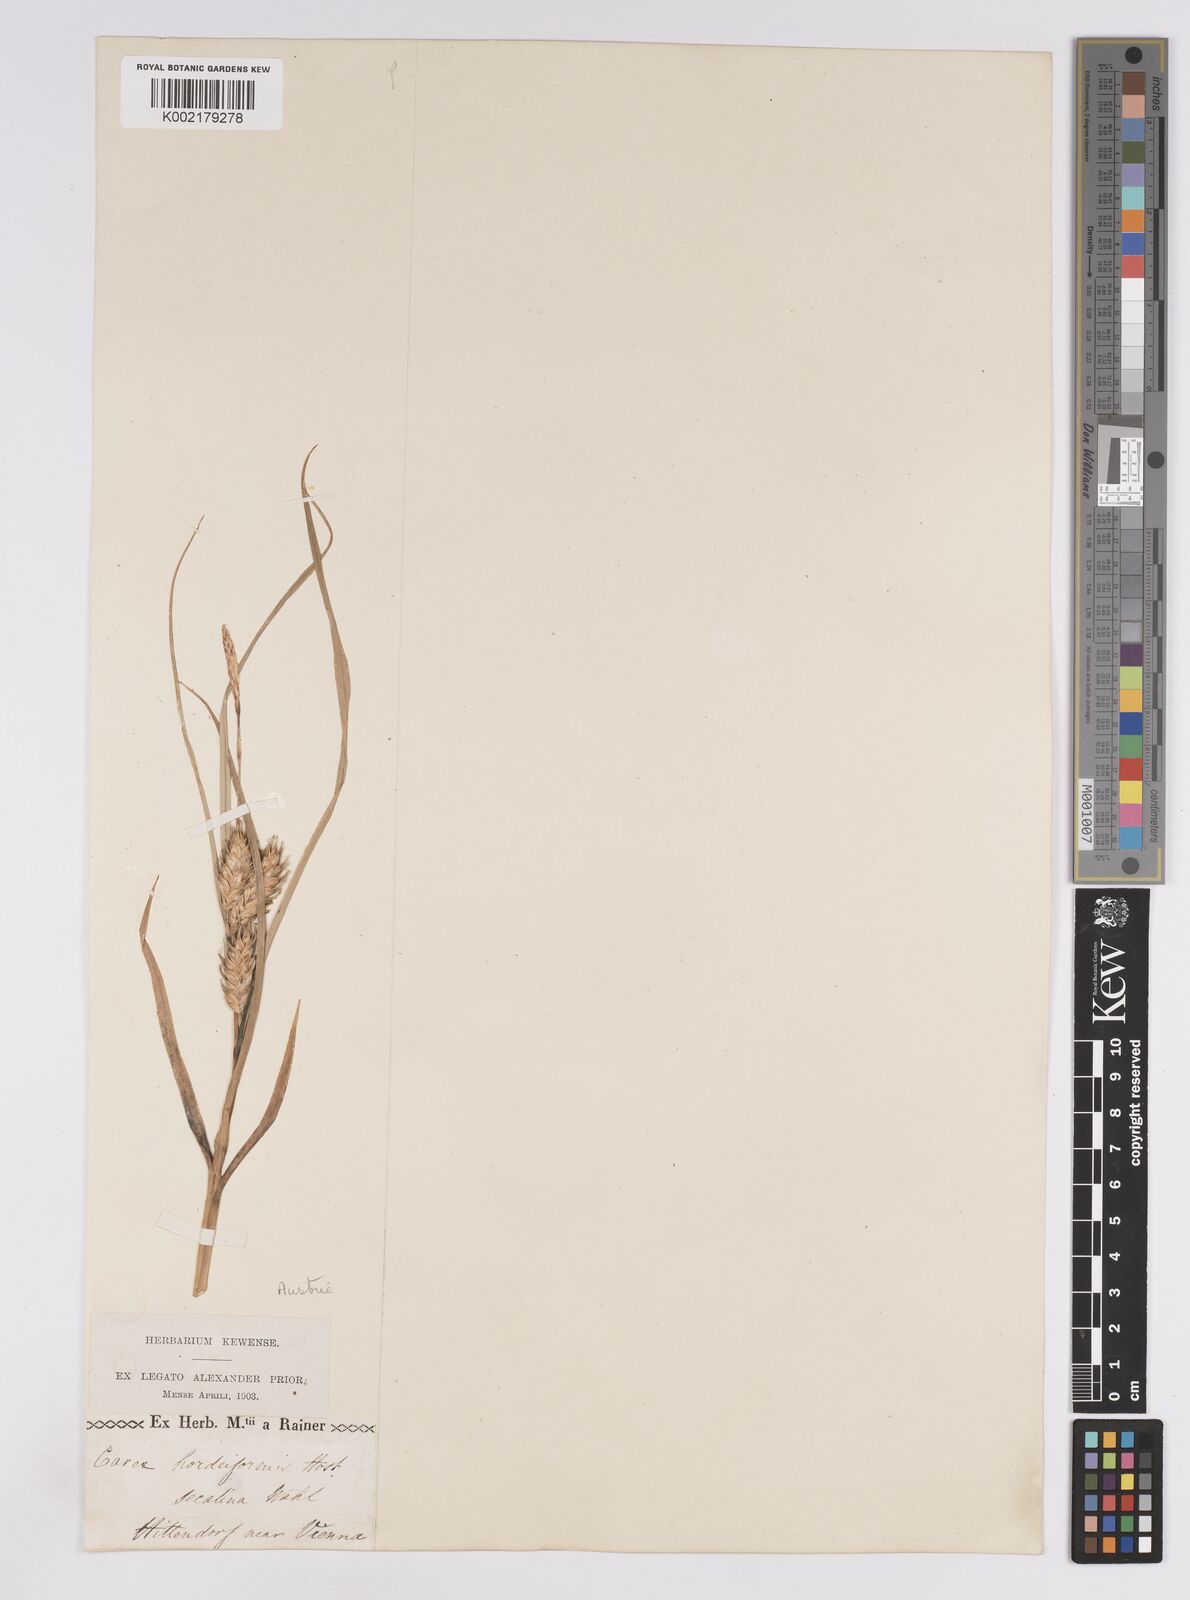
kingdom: Plantae
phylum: Tracheophyta
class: Liliopsida
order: Poales
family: Cyperaceae
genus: Carex
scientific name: Carex hordeistichos
